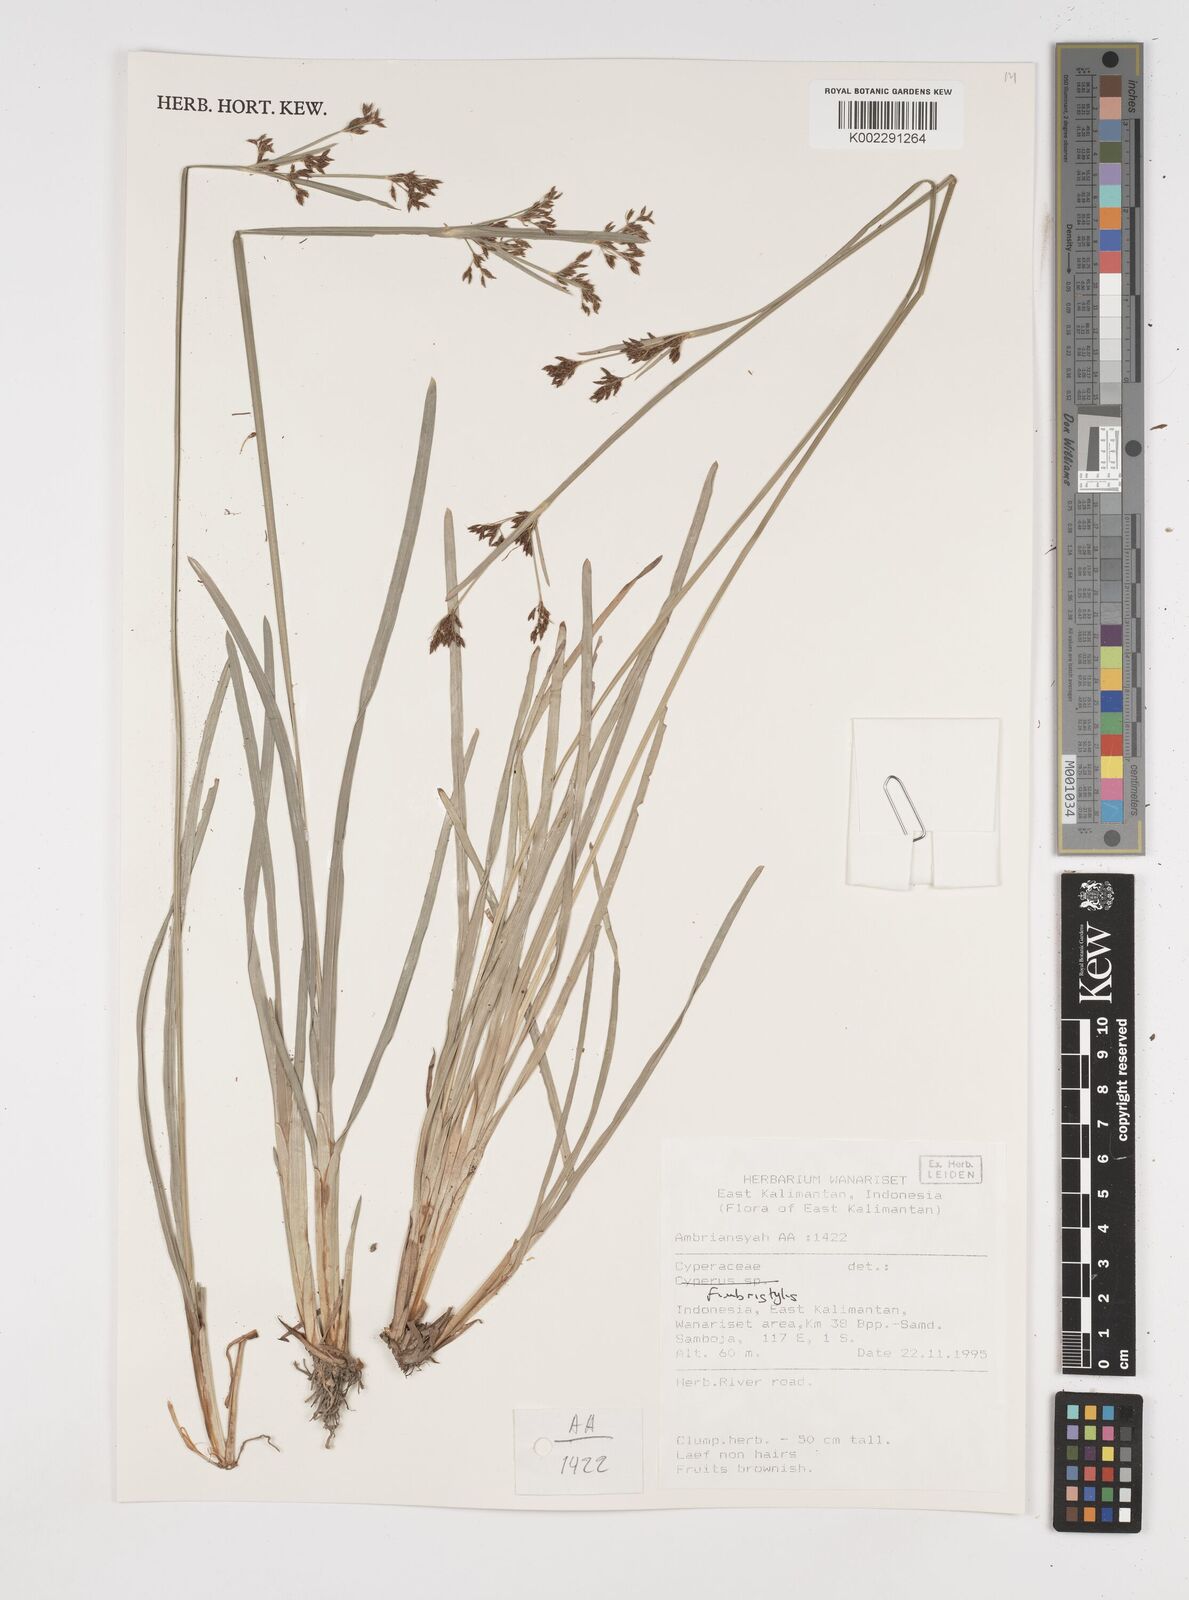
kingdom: Plantae
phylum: Tracheophyta
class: Liliopsida
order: Poales
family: Cyperaceae
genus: Fimbristylis
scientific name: Fimbristylis
